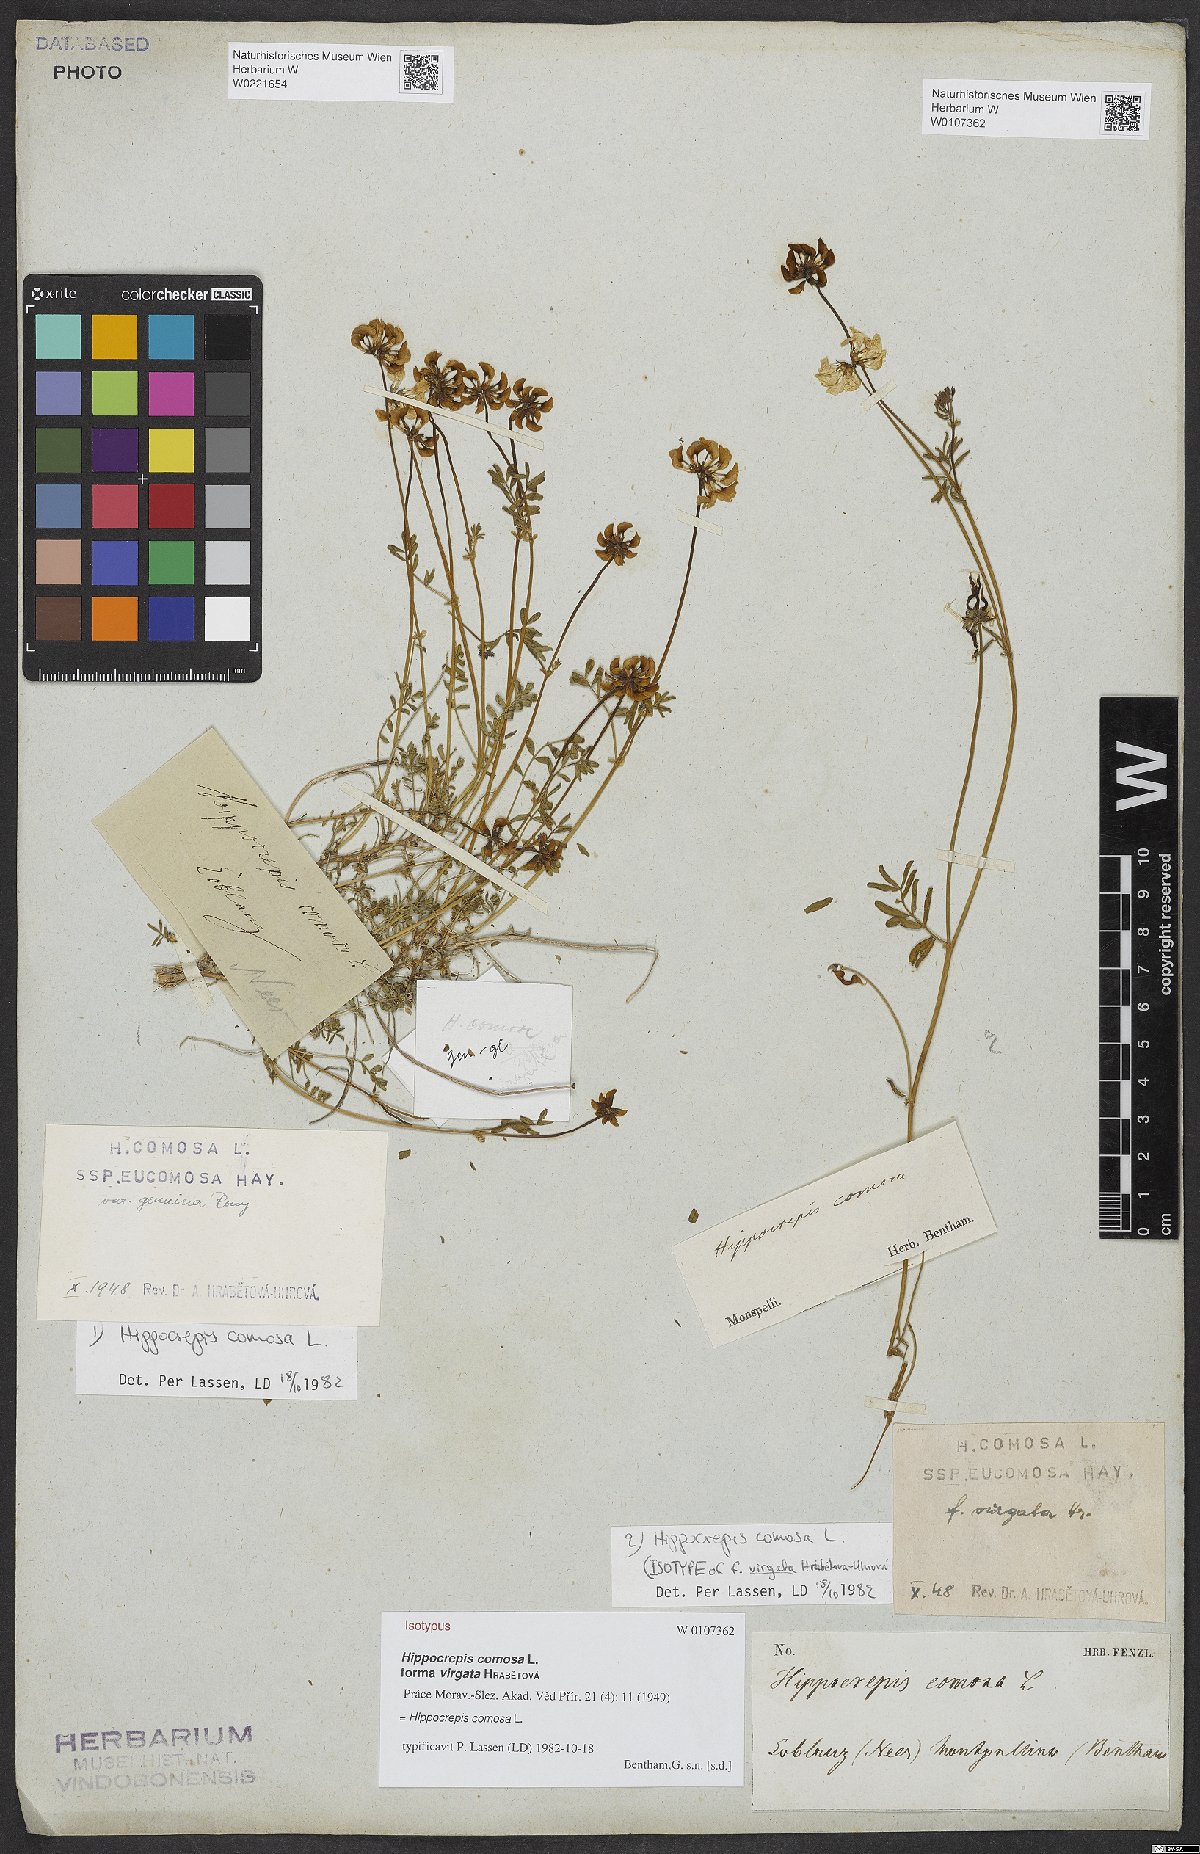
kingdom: Plantae
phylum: Tracheophyta
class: Magnoliopsida
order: Fabales
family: Fabaceae
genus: Hippocrepis
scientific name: Hippocrepis comosa
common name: Horseshoe vetch
